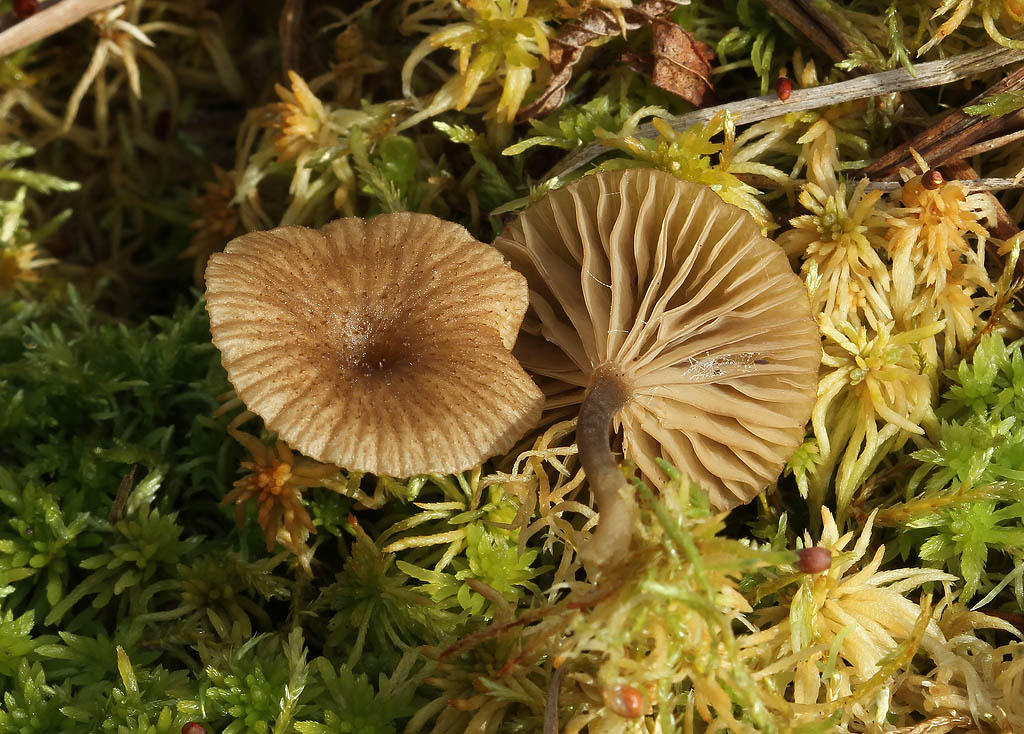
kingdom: Fungi
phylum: Basidiomycota
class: Agaricomycetes
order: Agaricales
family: Hygrophoraceae
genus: Arrhenia
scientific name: Arrhenia gerardiana
